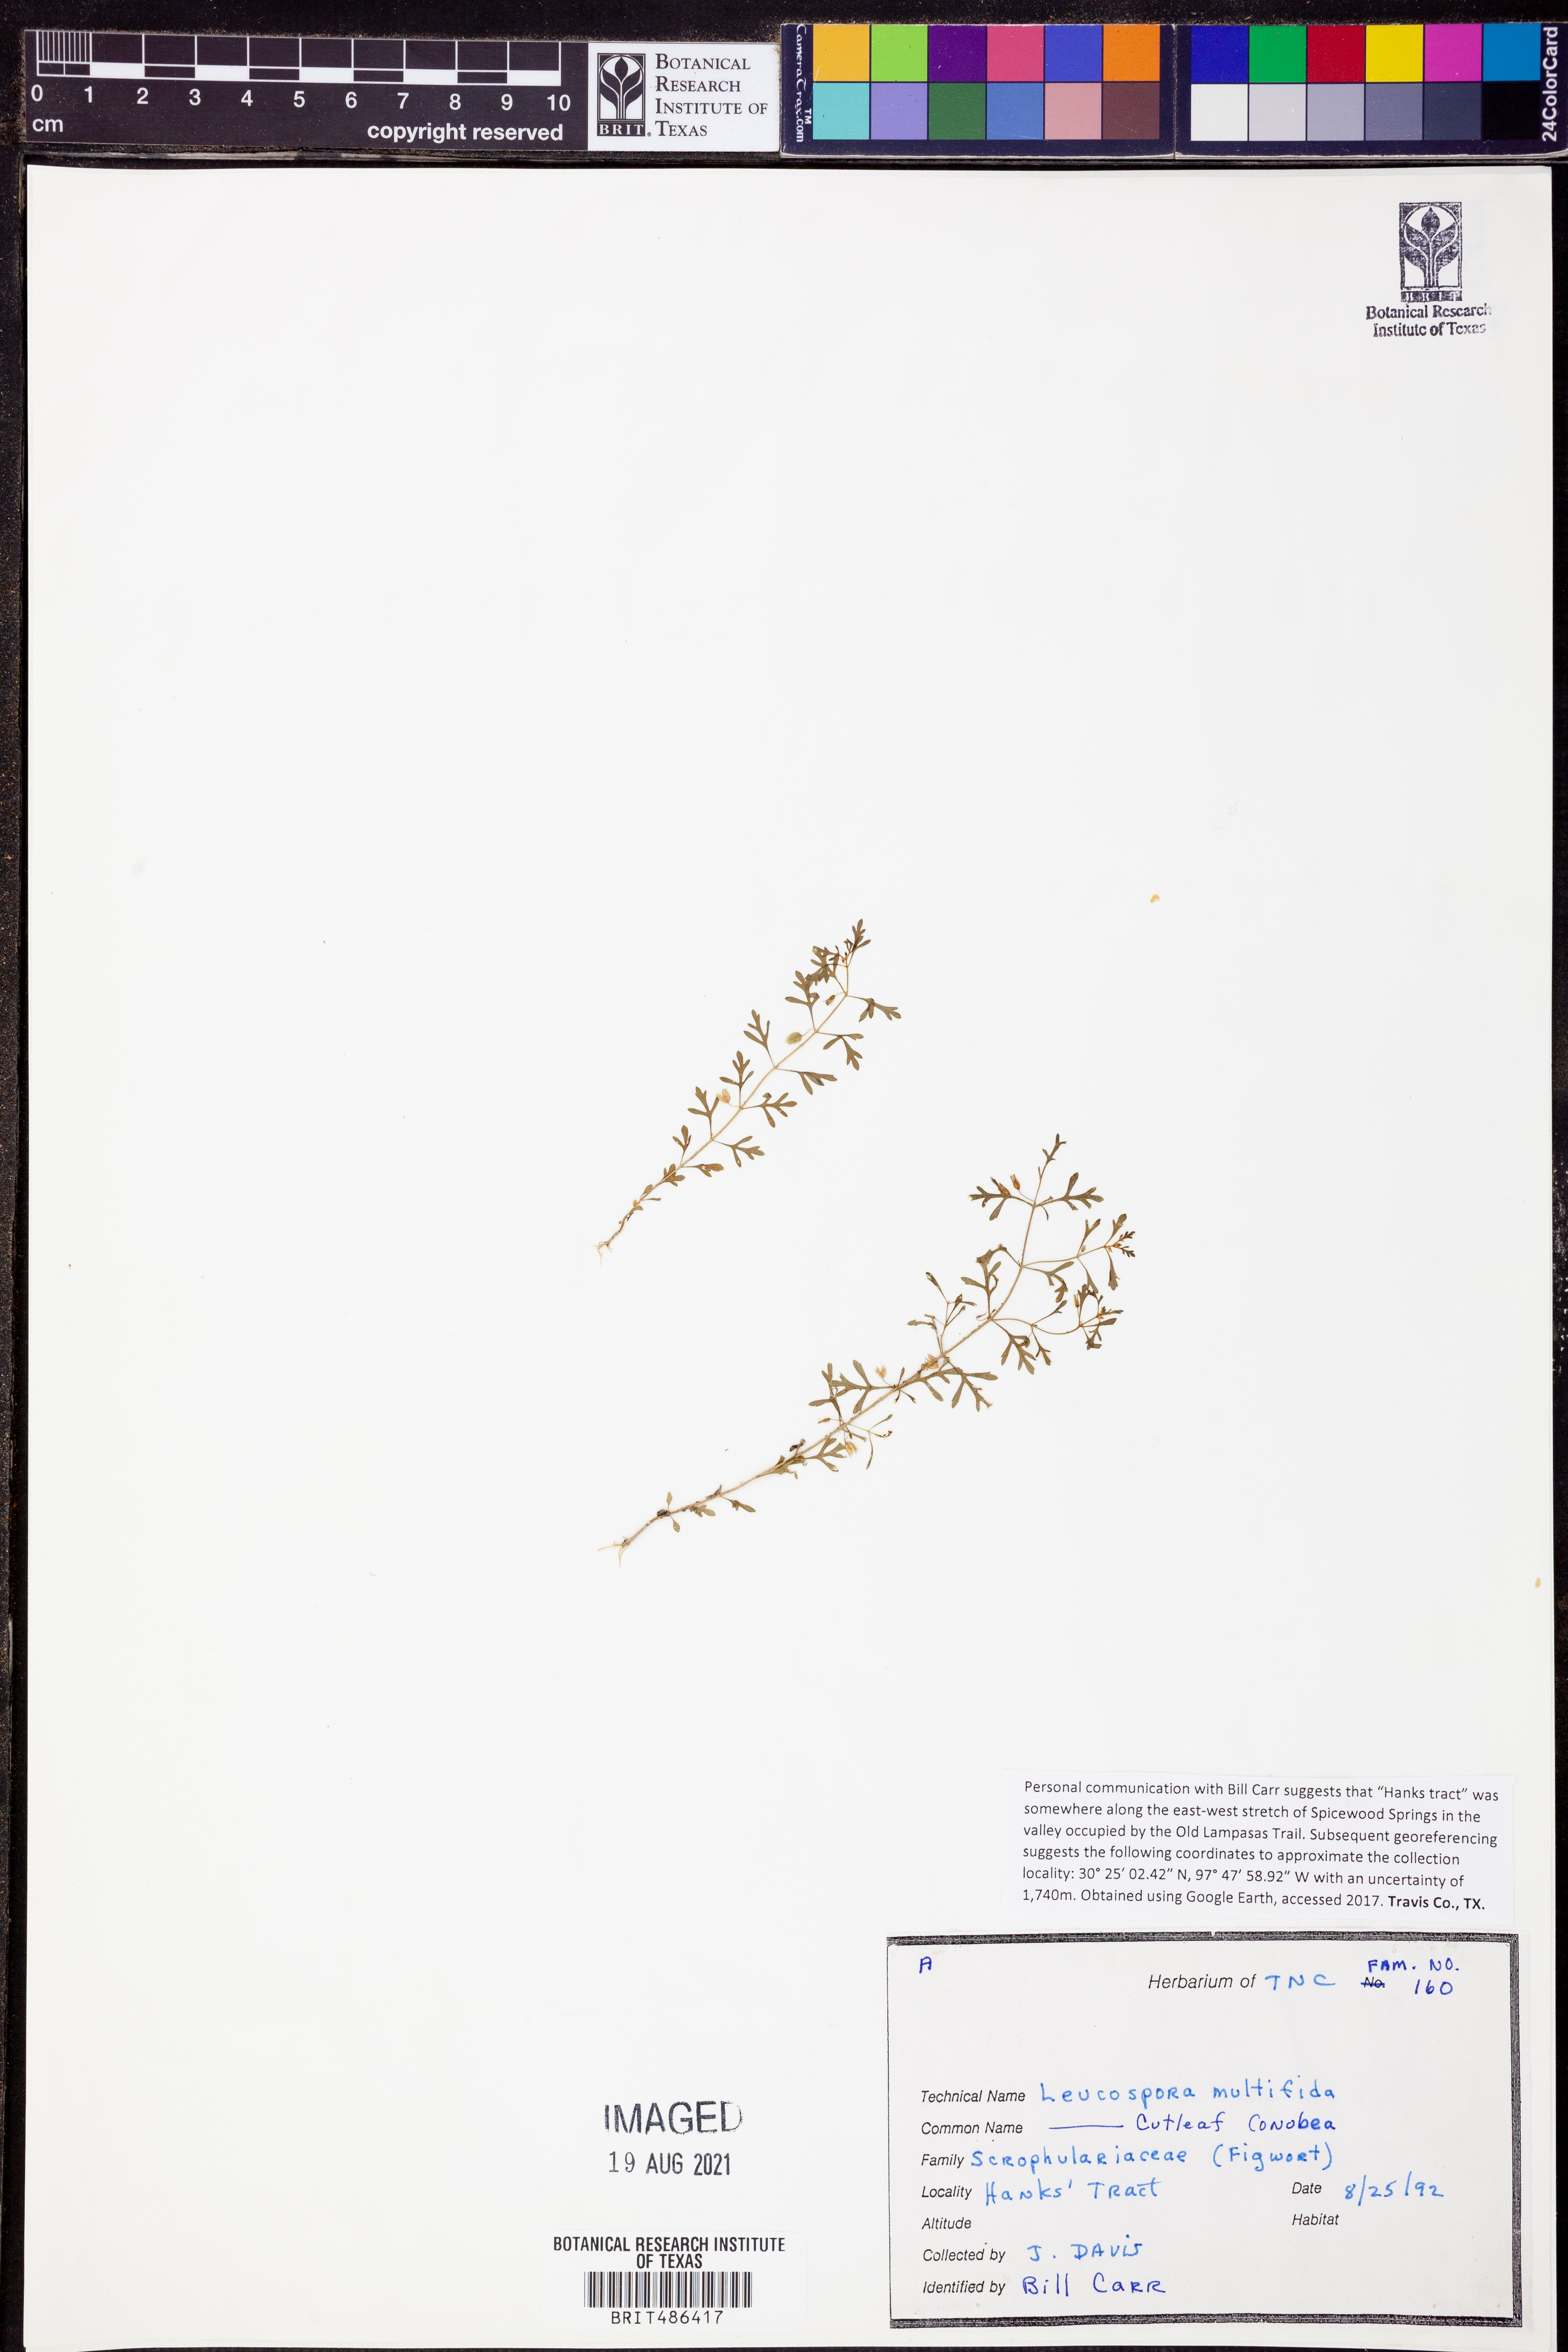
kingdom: Plantae
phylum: Tracheophyta
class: Magnoliopsida
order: Lamiales
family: Plantaginaceae
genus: Leucospora
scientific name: Leucospora multifida
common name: Narrow-leaf paleseed
